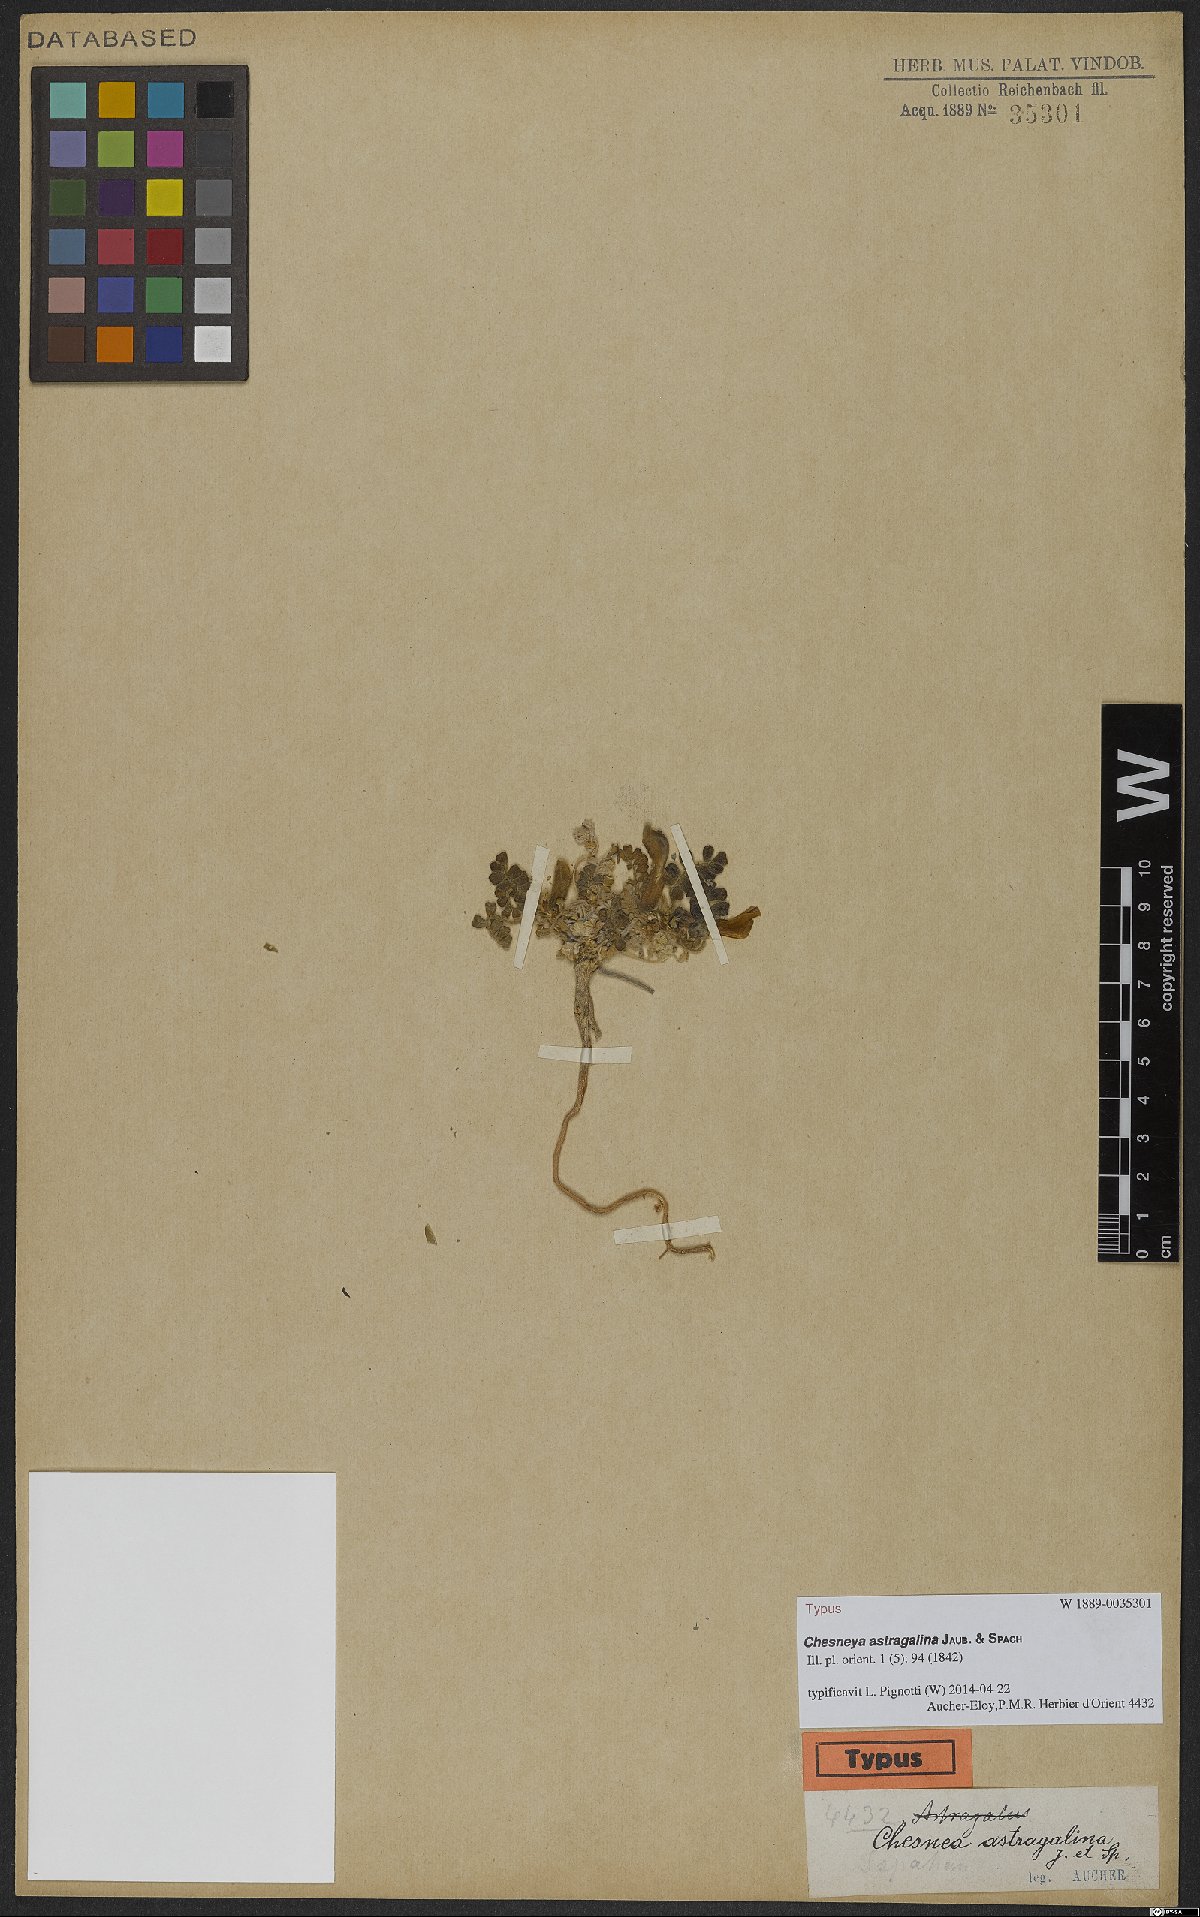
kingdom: Plantae
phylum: Tracheophyta
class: Magnoliopsida
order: Fabales
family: Fabaceae
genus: Chesneya
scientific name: Chesneya astragalina
